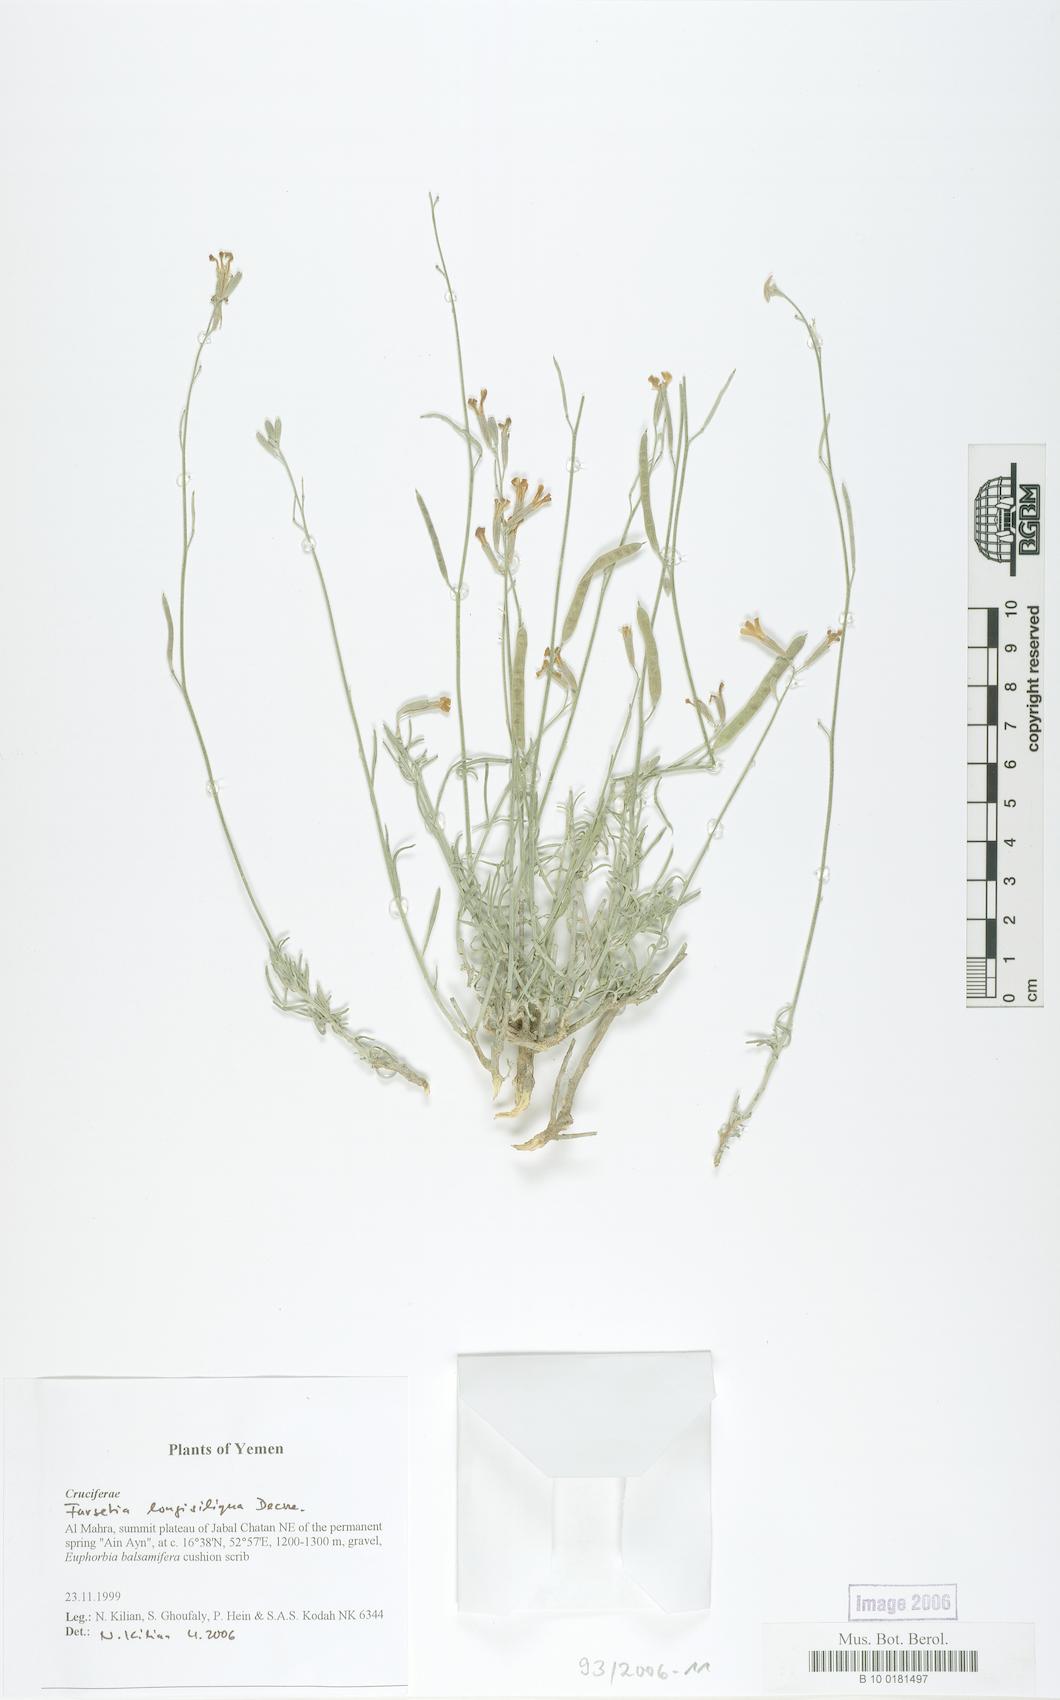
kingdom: Plantae
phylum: Tracheophyta
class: Magnoliopsida
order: Brassicales
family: Brassicaceae
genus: Farsetia
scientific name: Farsetia longisiliqua
